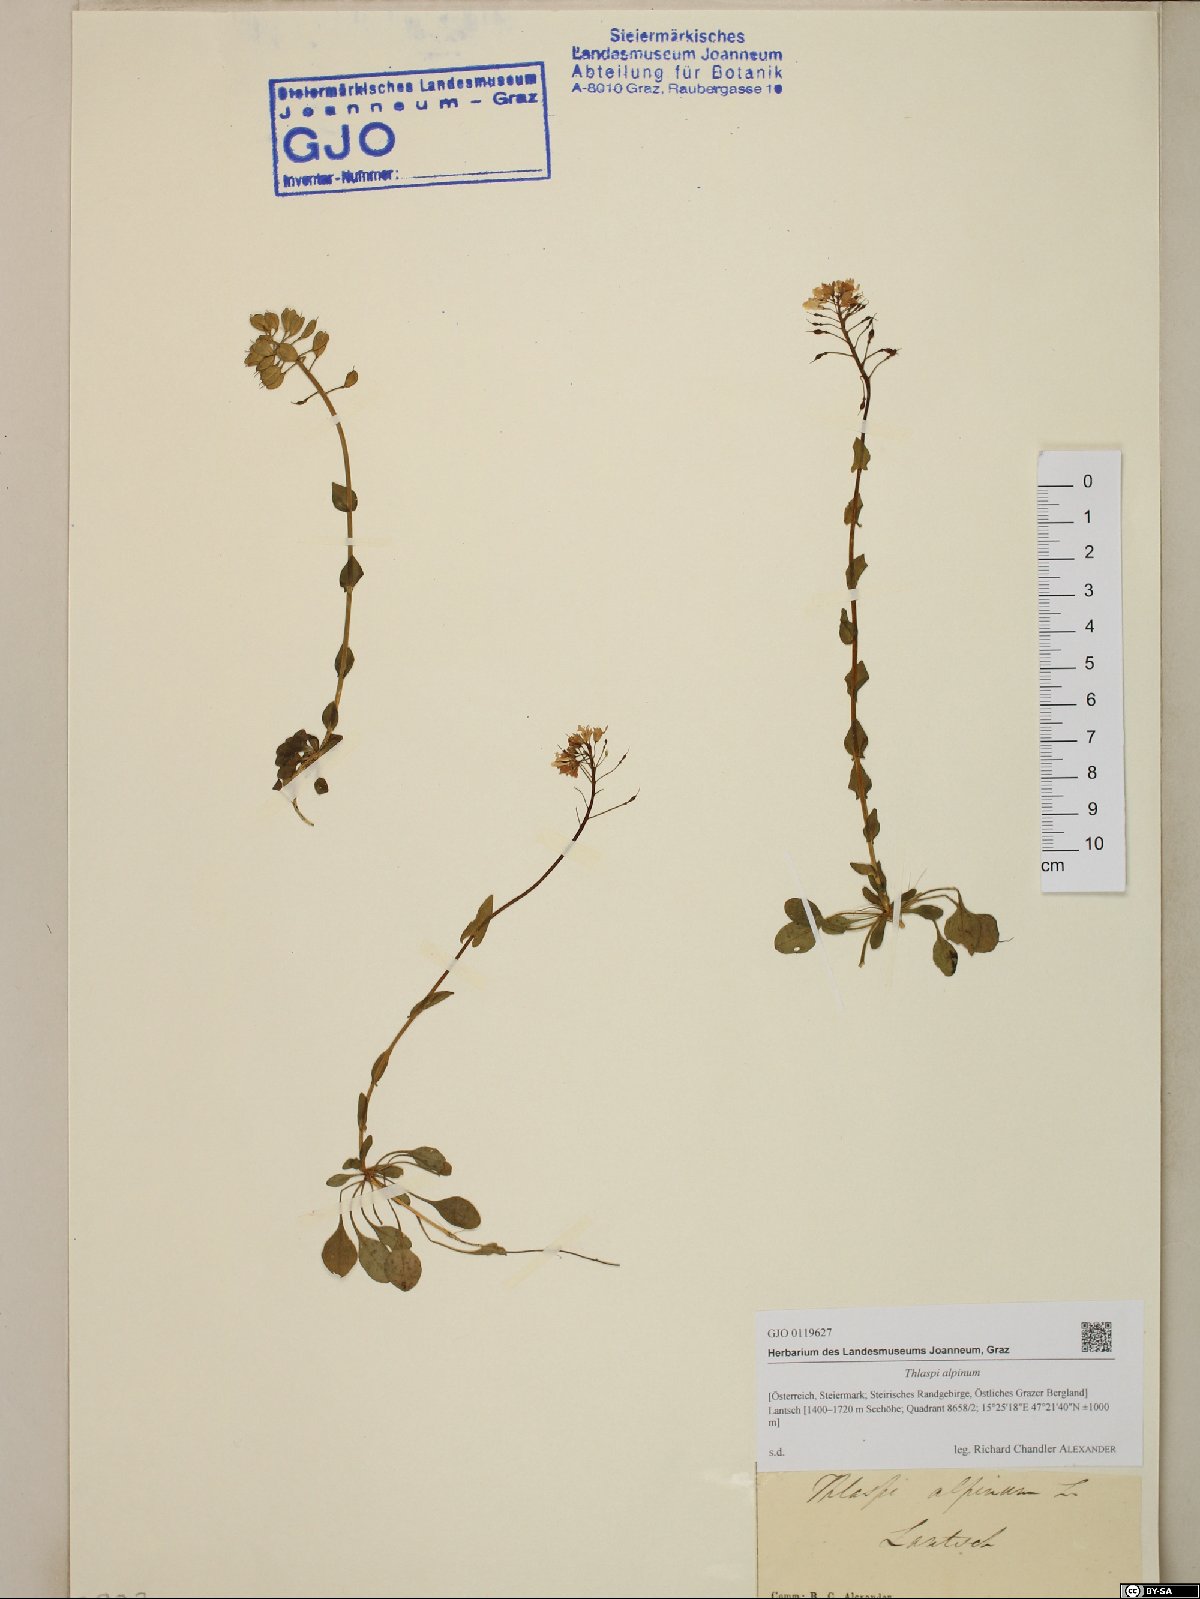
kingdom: Plantae
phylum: Tracheophyta
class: Magnoliopsida
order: Brassicales
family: Brassicaceae
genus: Noccaea
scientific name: Noccaea alpestris
